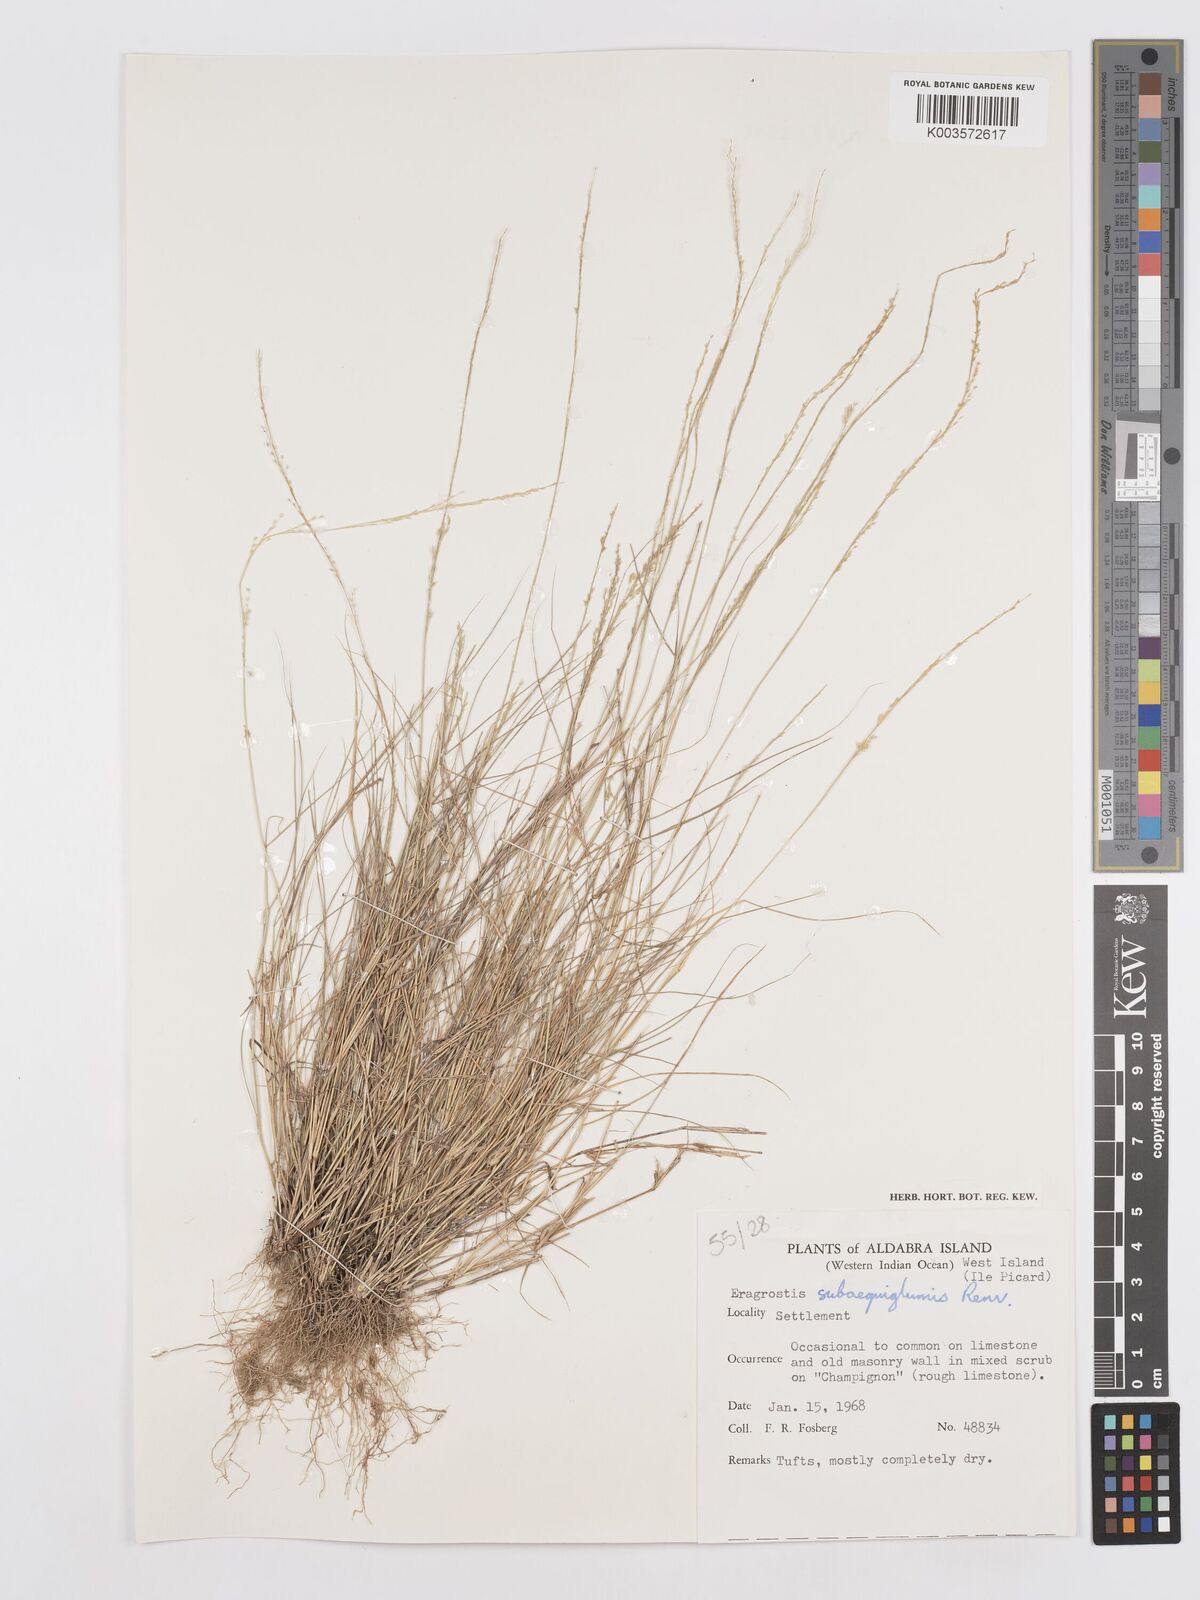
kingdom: Plantae
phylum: Tracheophyta
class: Liliopsida
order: Poales
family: Poaceae
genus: Eragrostis
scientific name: Eragrostis subaequiglumis
